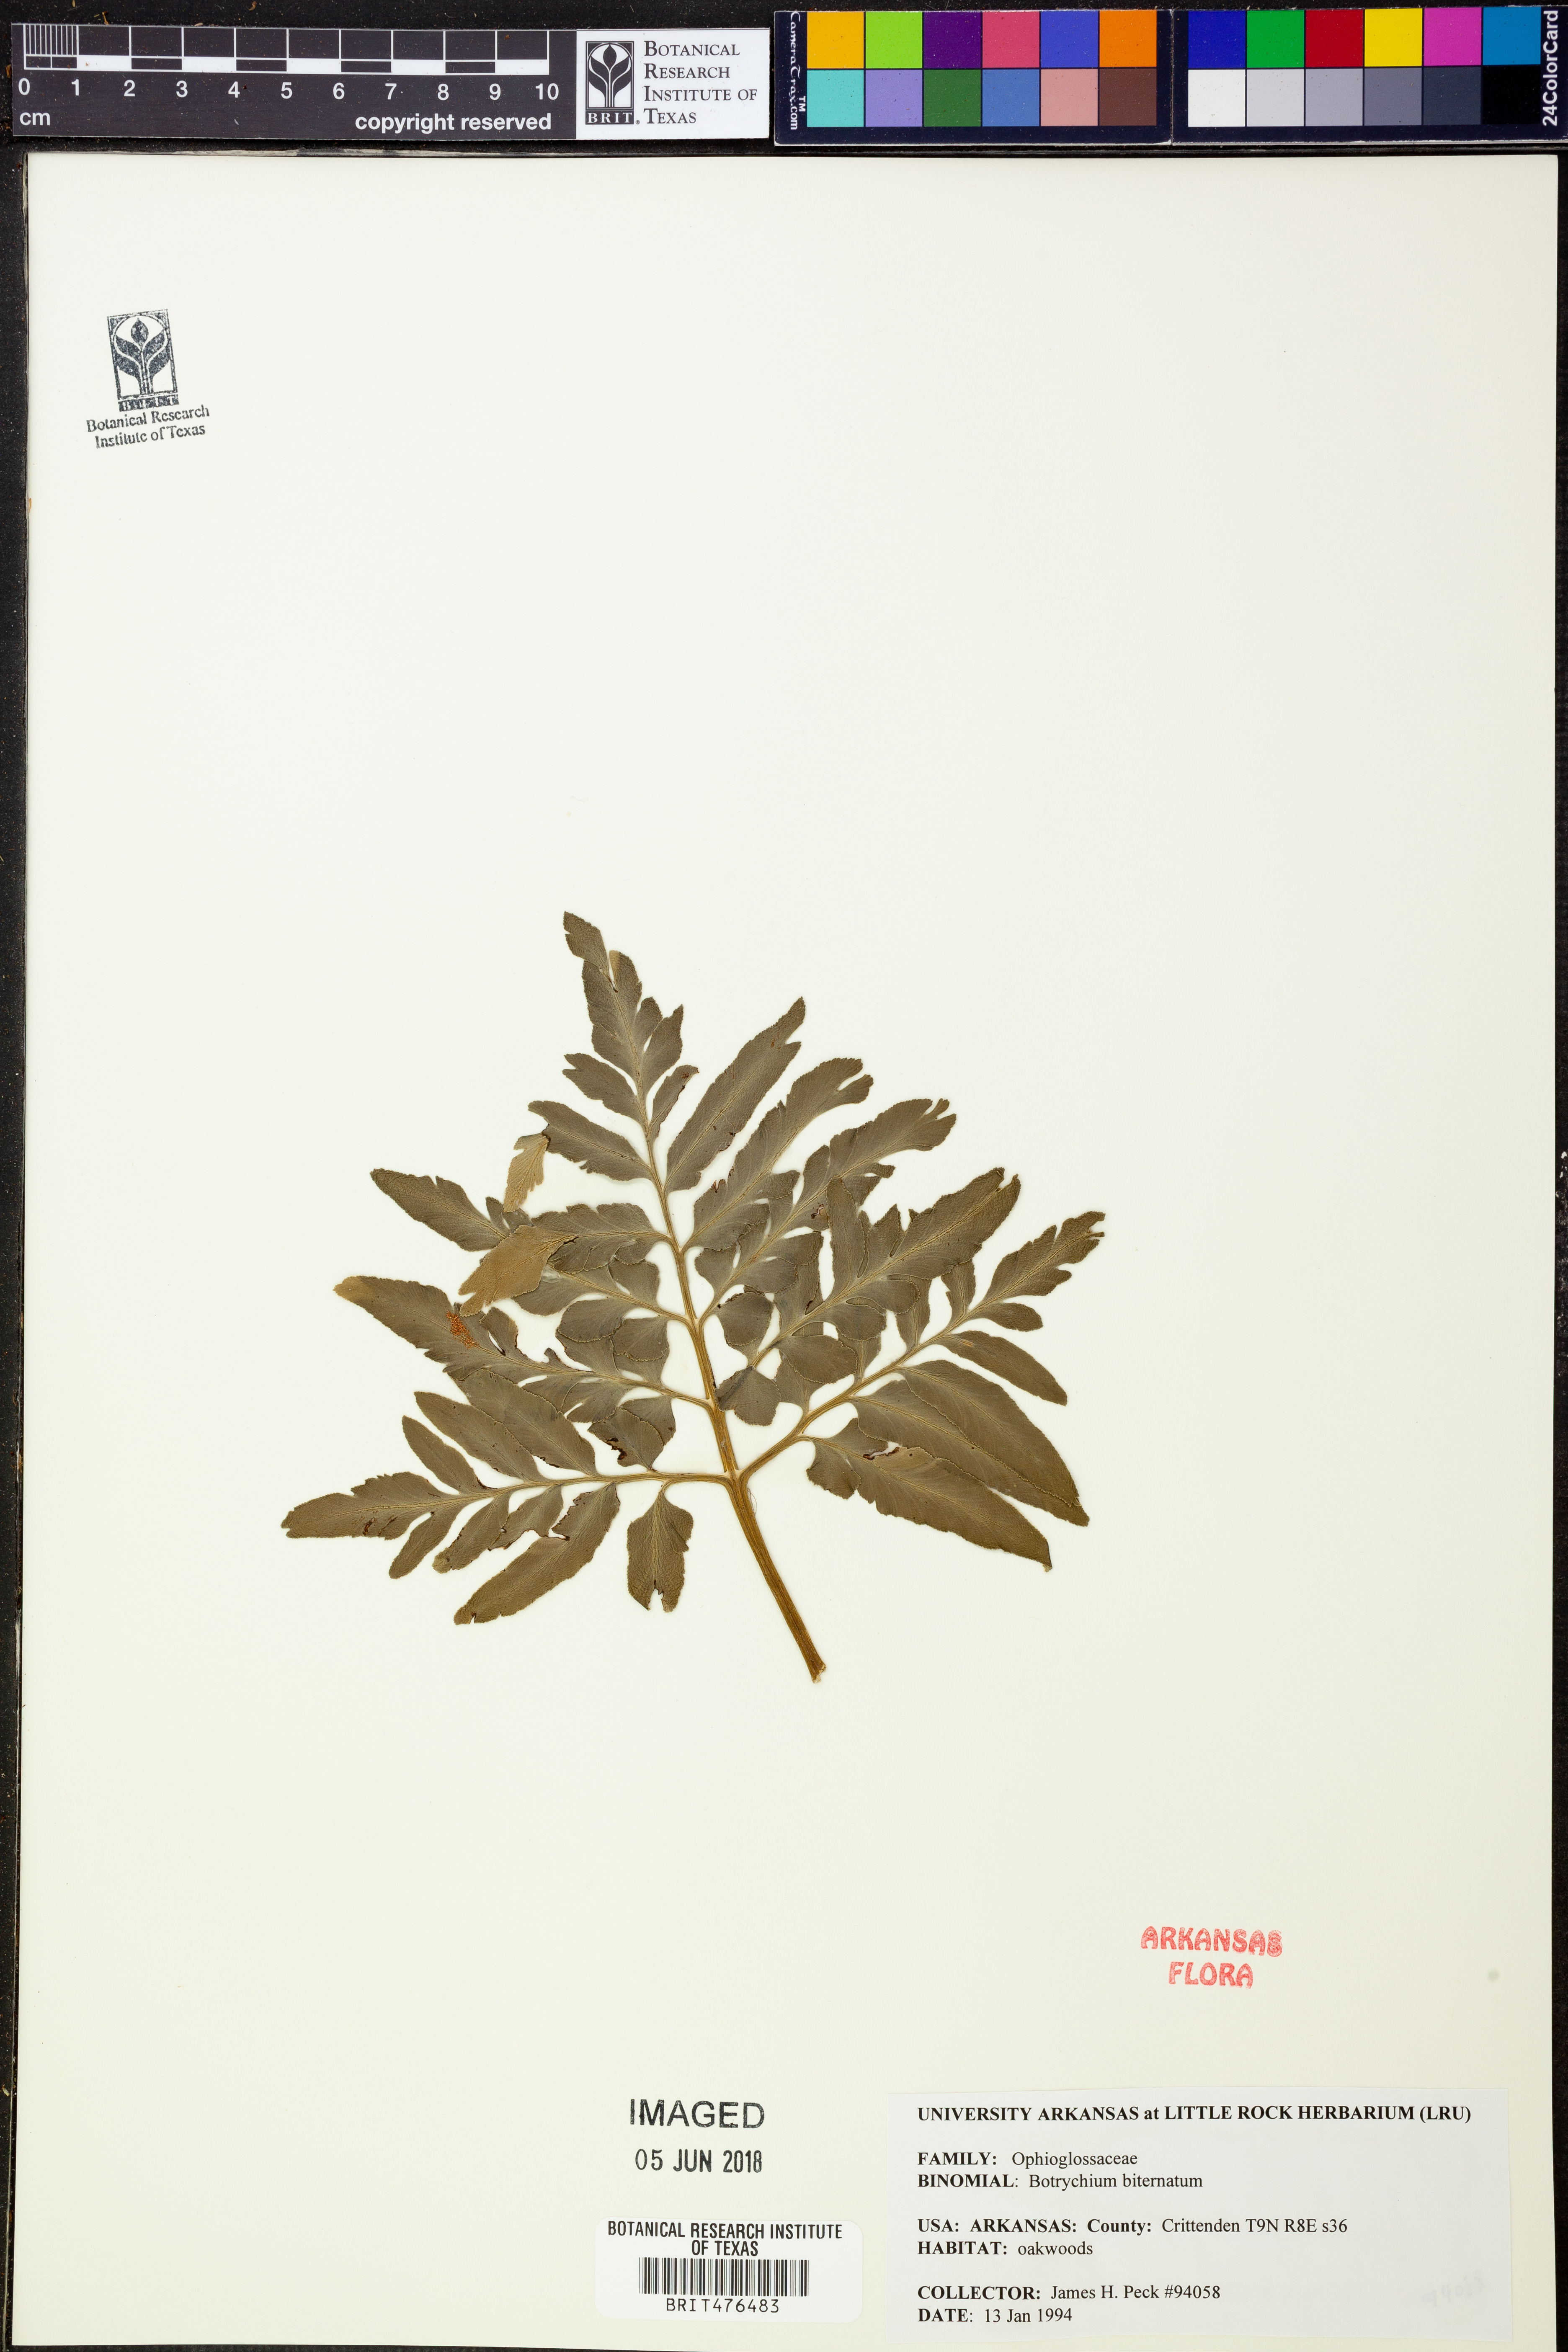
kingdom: Plantae
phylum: Tracheophyta
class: Polypodiopsida
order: Ophioglossales
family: Ophioglossaceae
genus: Sceptridium
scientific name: Sceptridium biternatum
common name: Sparse-lobed grapefern
